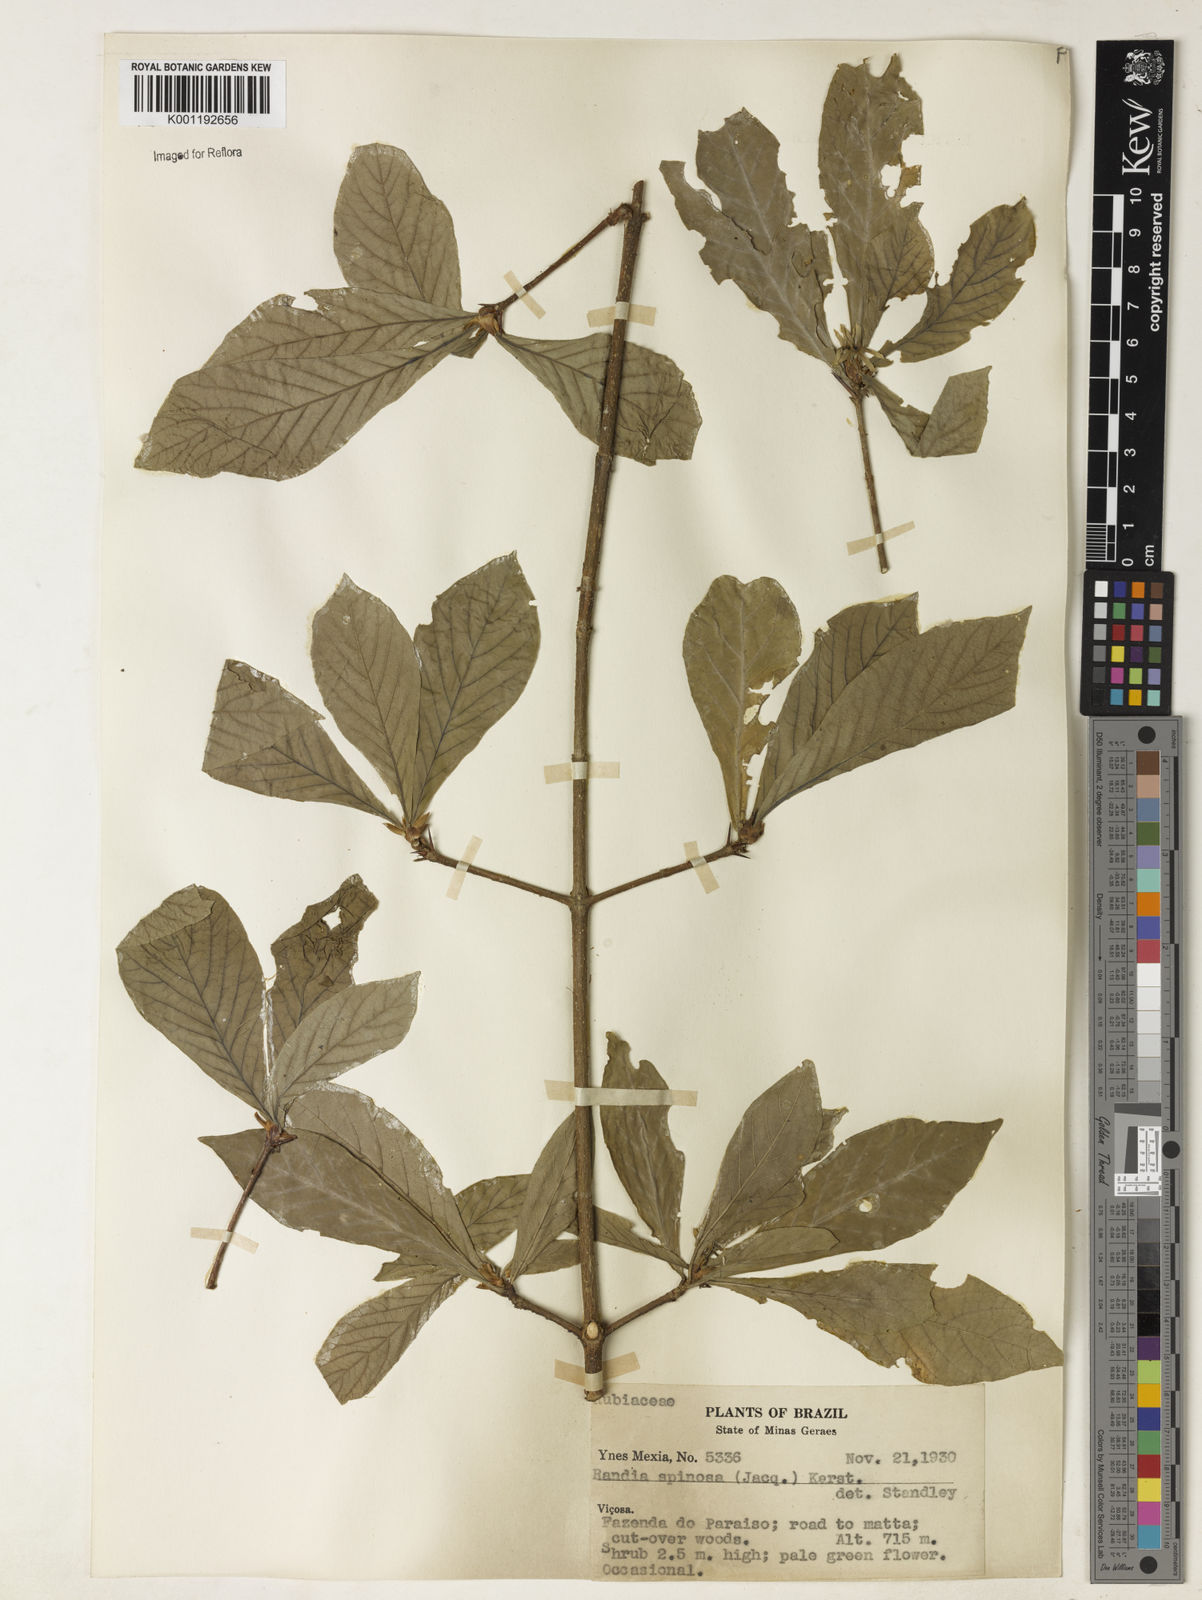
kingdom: Plantae
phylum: Tracheophyta
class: Magnoliopsida
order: Gentianales
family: Rubiaceae
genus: Randia
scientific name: Randia armata
